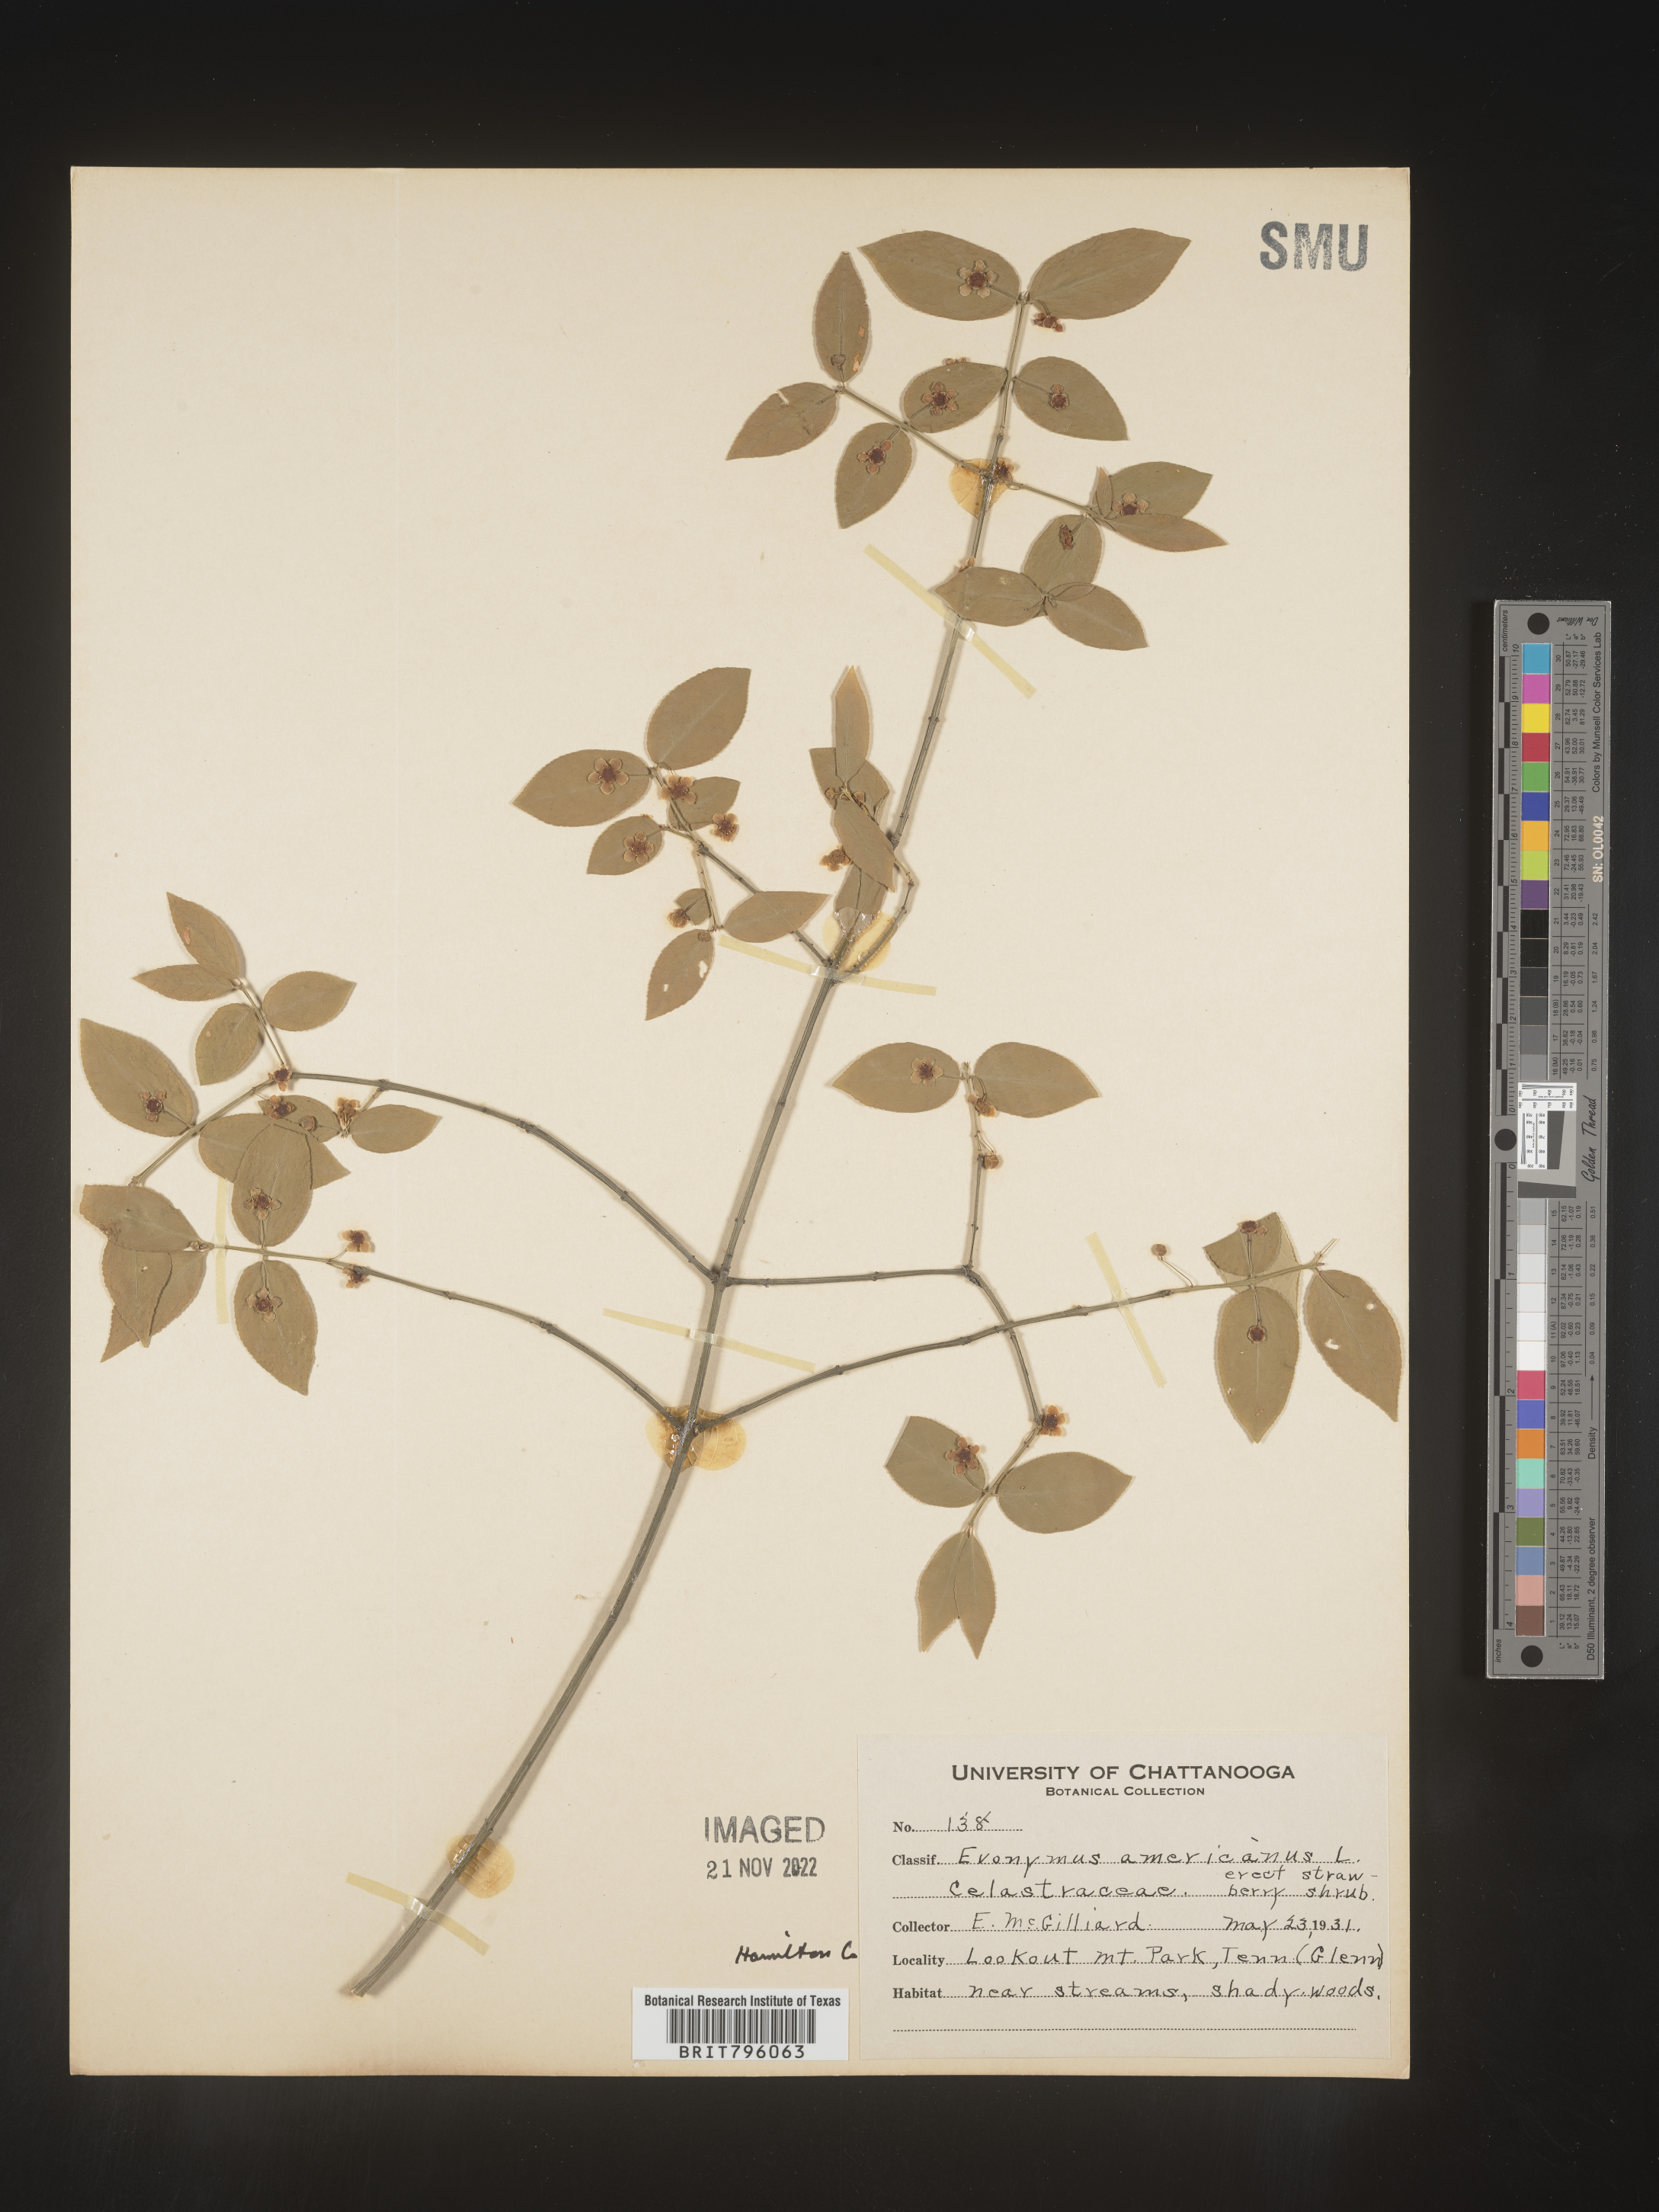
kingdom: Plantae
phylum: Tracheophyta
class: Magnoliopsida
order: Celastrales
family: Celastraceae
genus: Euonymus
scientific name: Euonymus americanus
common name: Bursting-heart
